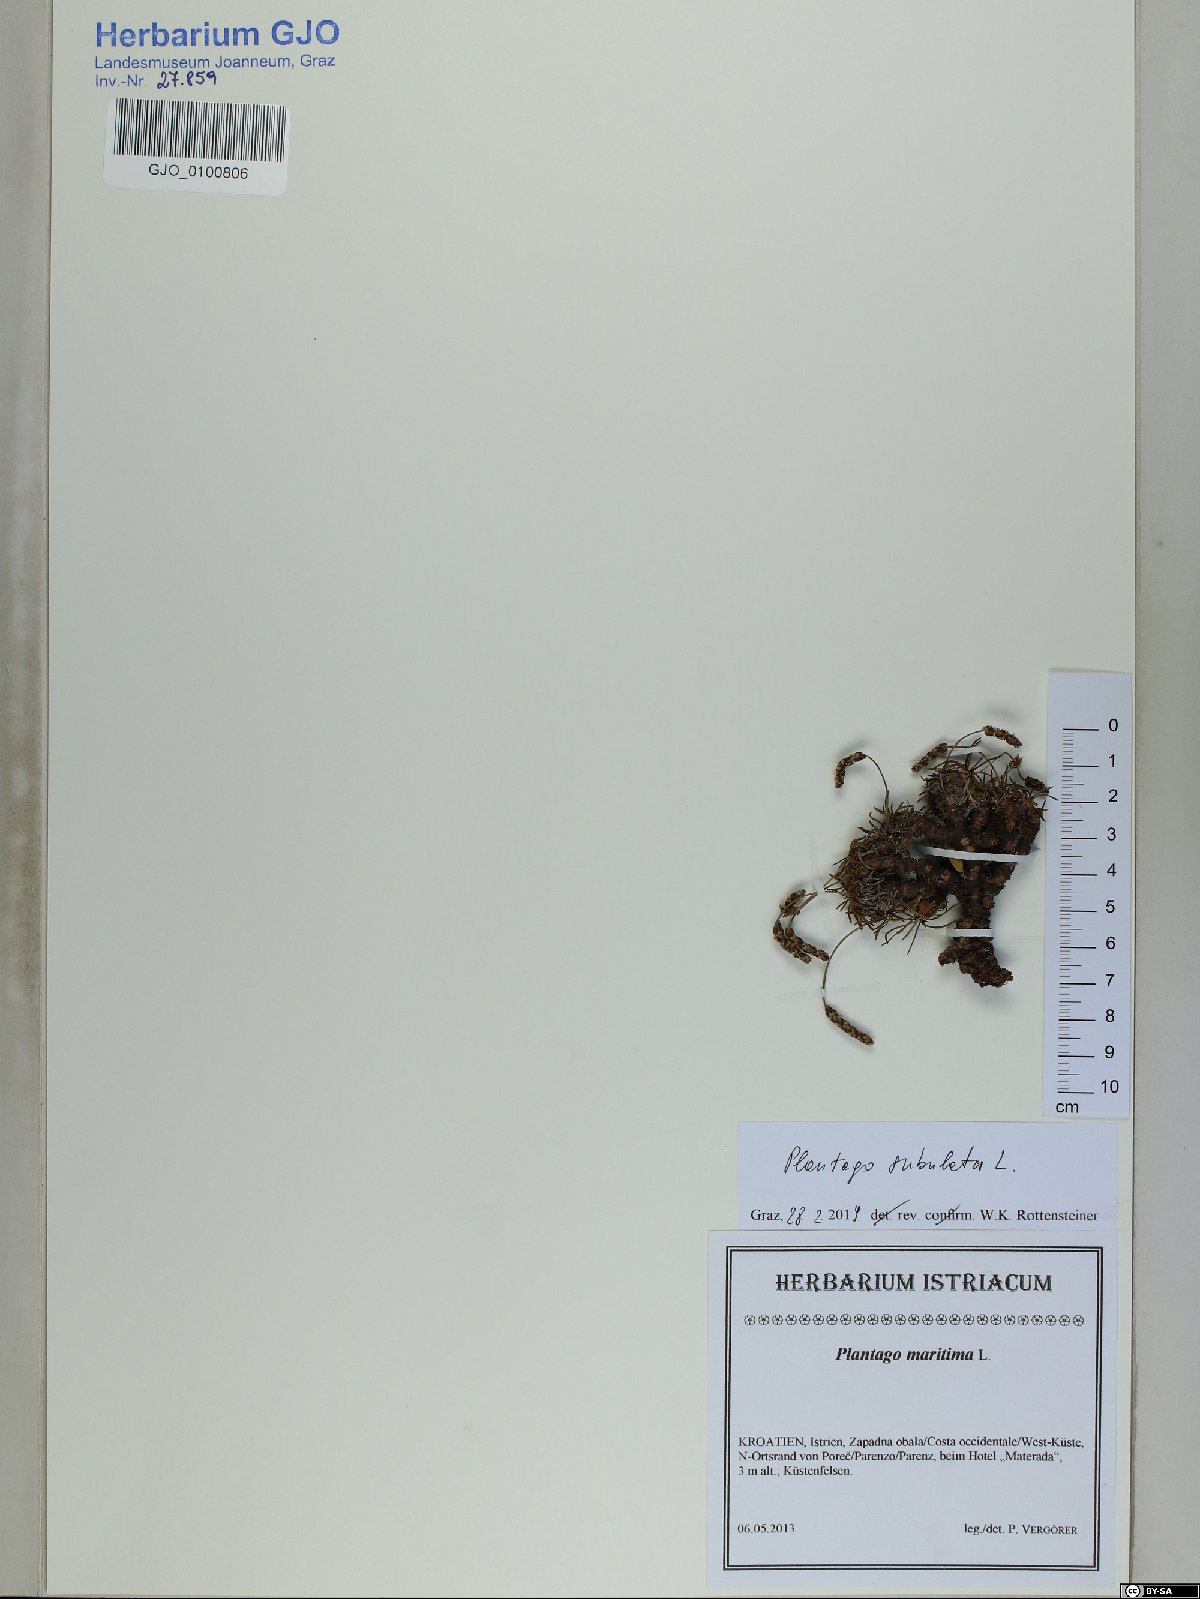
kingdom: Plantae
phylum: Tracheophyta
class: Magnoliopsida
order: Lamiales
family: Plantaginaceae
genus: Plantago
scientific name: Plantago subulata
